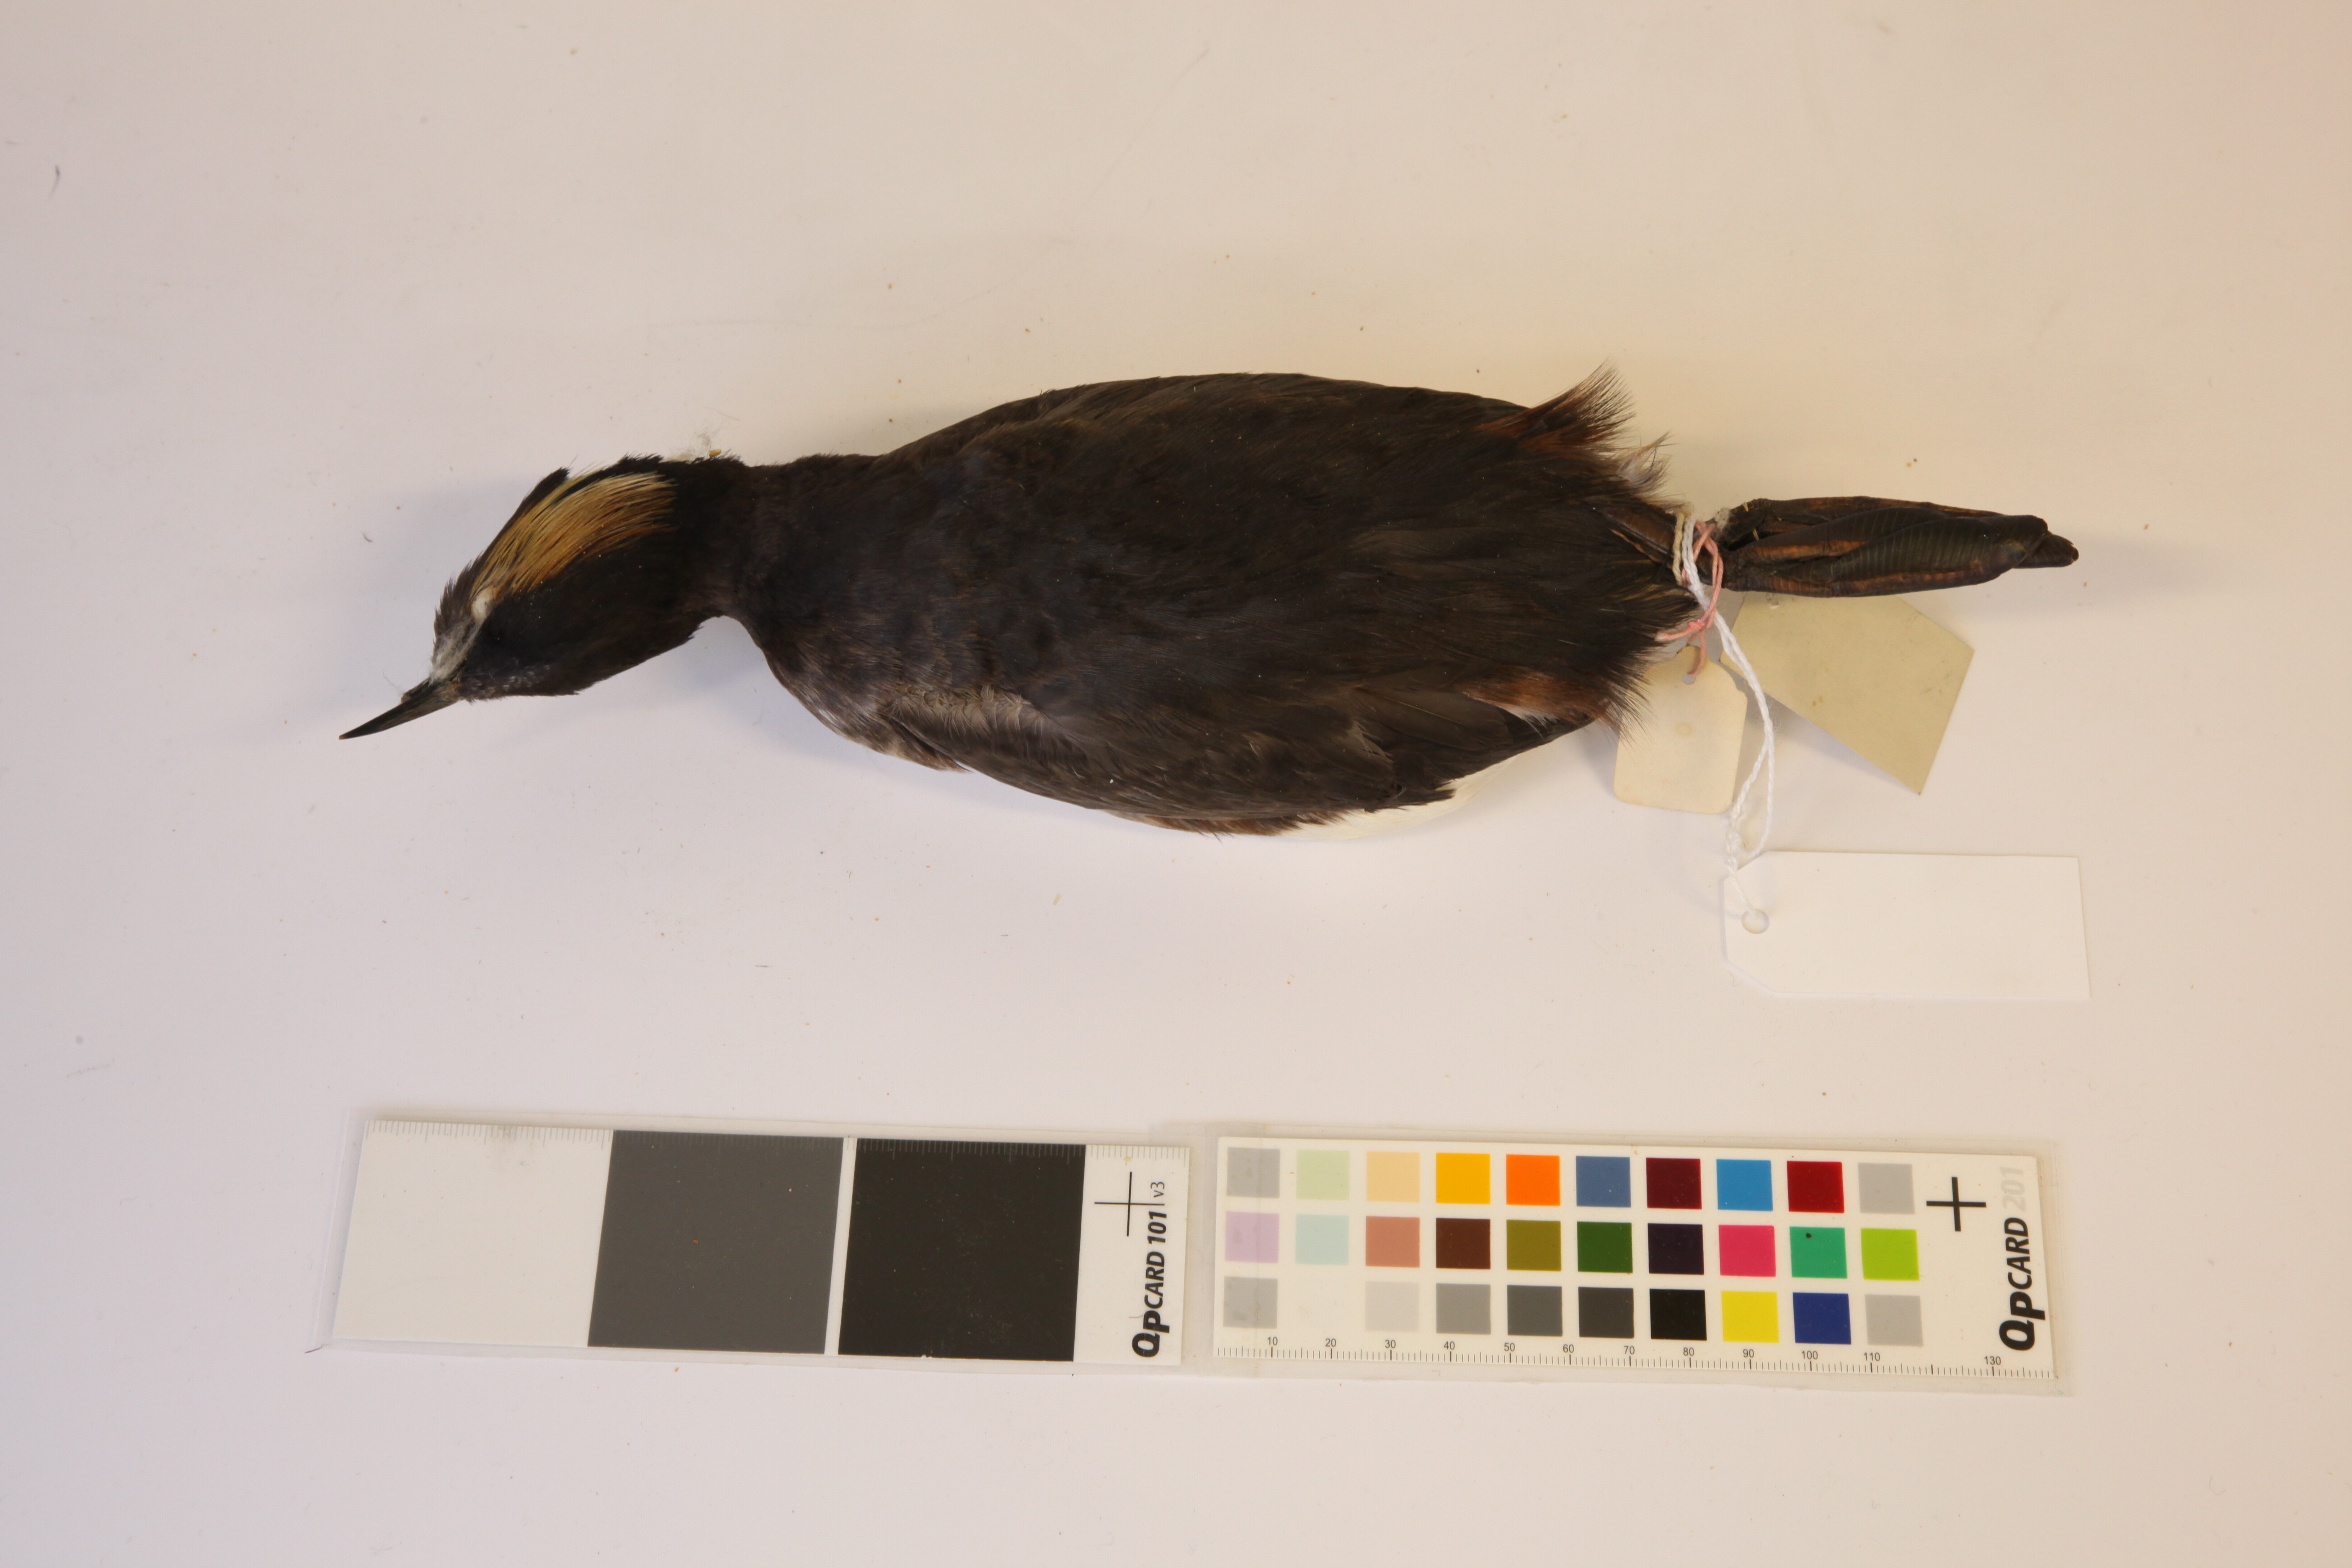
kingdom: Animalia
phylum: Chordata
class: Aves
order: Podicipediformes
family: Podicipedidae
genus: Podiceps
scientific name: Podiceps nigricollis
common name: Black-necked grebe
